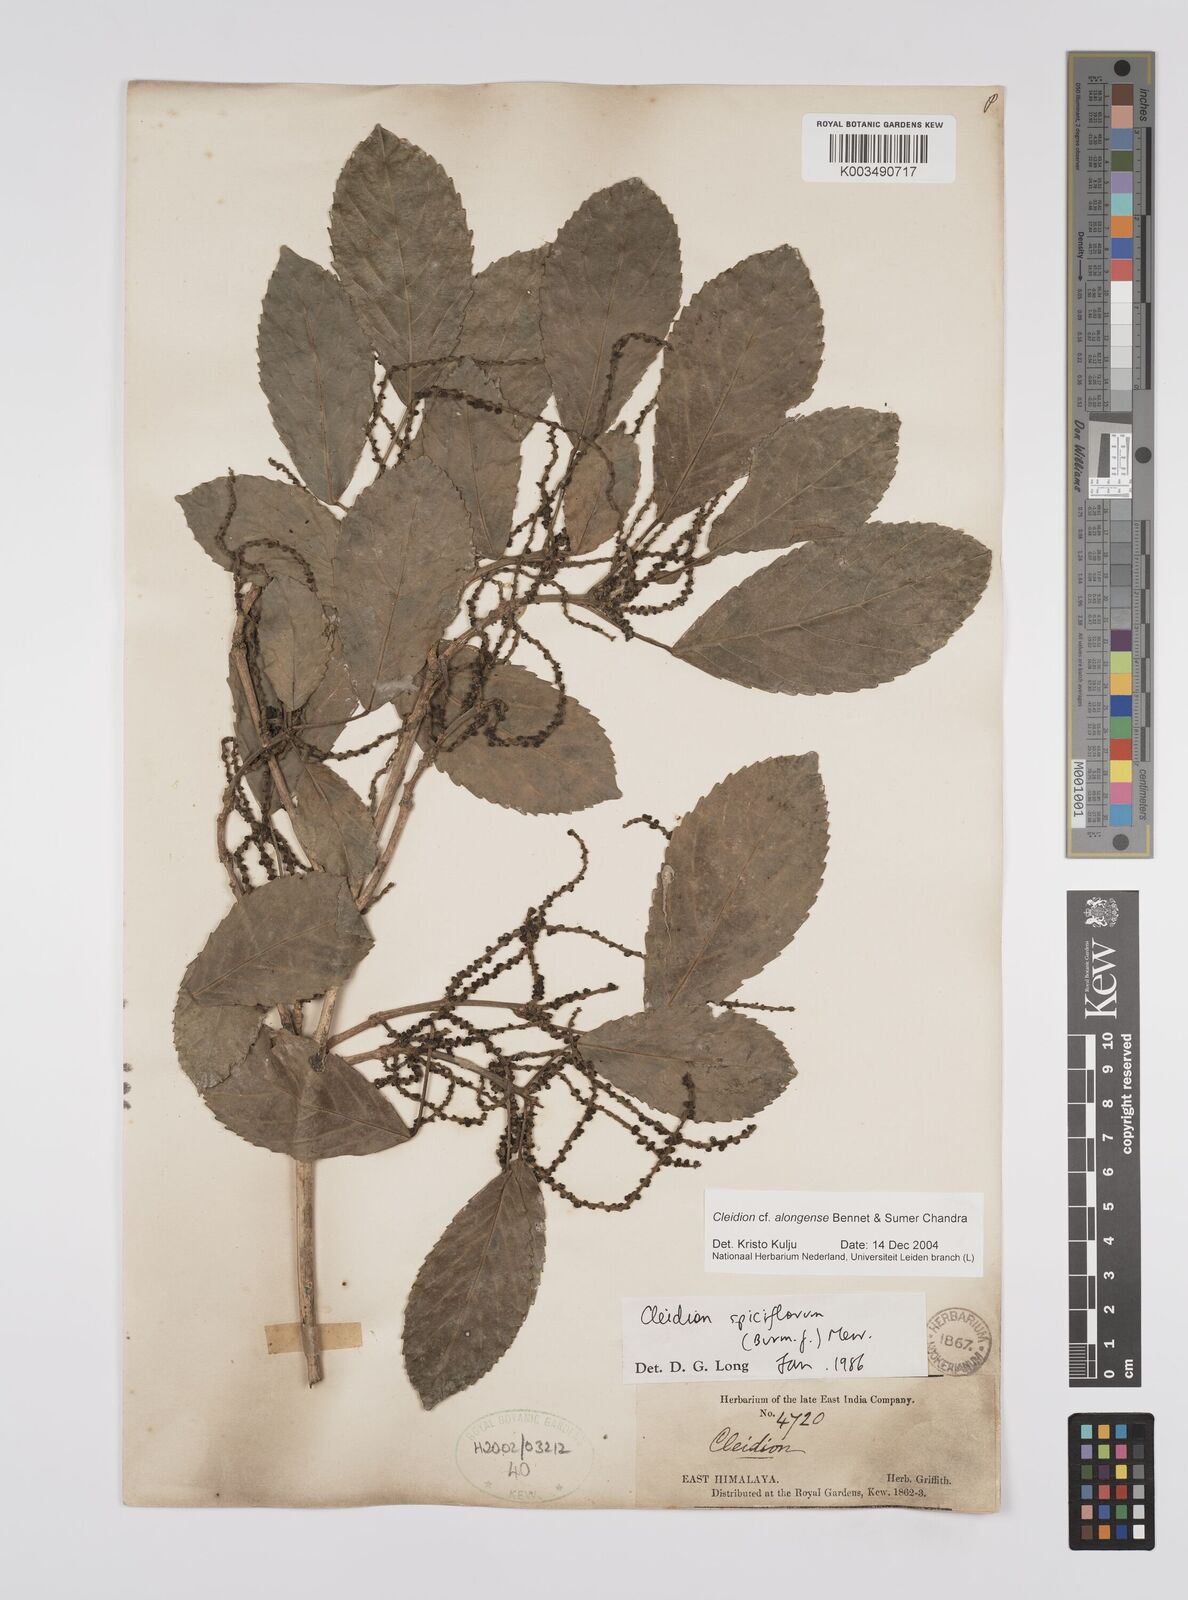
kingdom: Plantae
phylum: Tracheophyta
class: Magnoliopsida
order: Malpighiales
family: Euphorbiaceae
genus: Cleidion
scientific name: Cleidion javanicum
